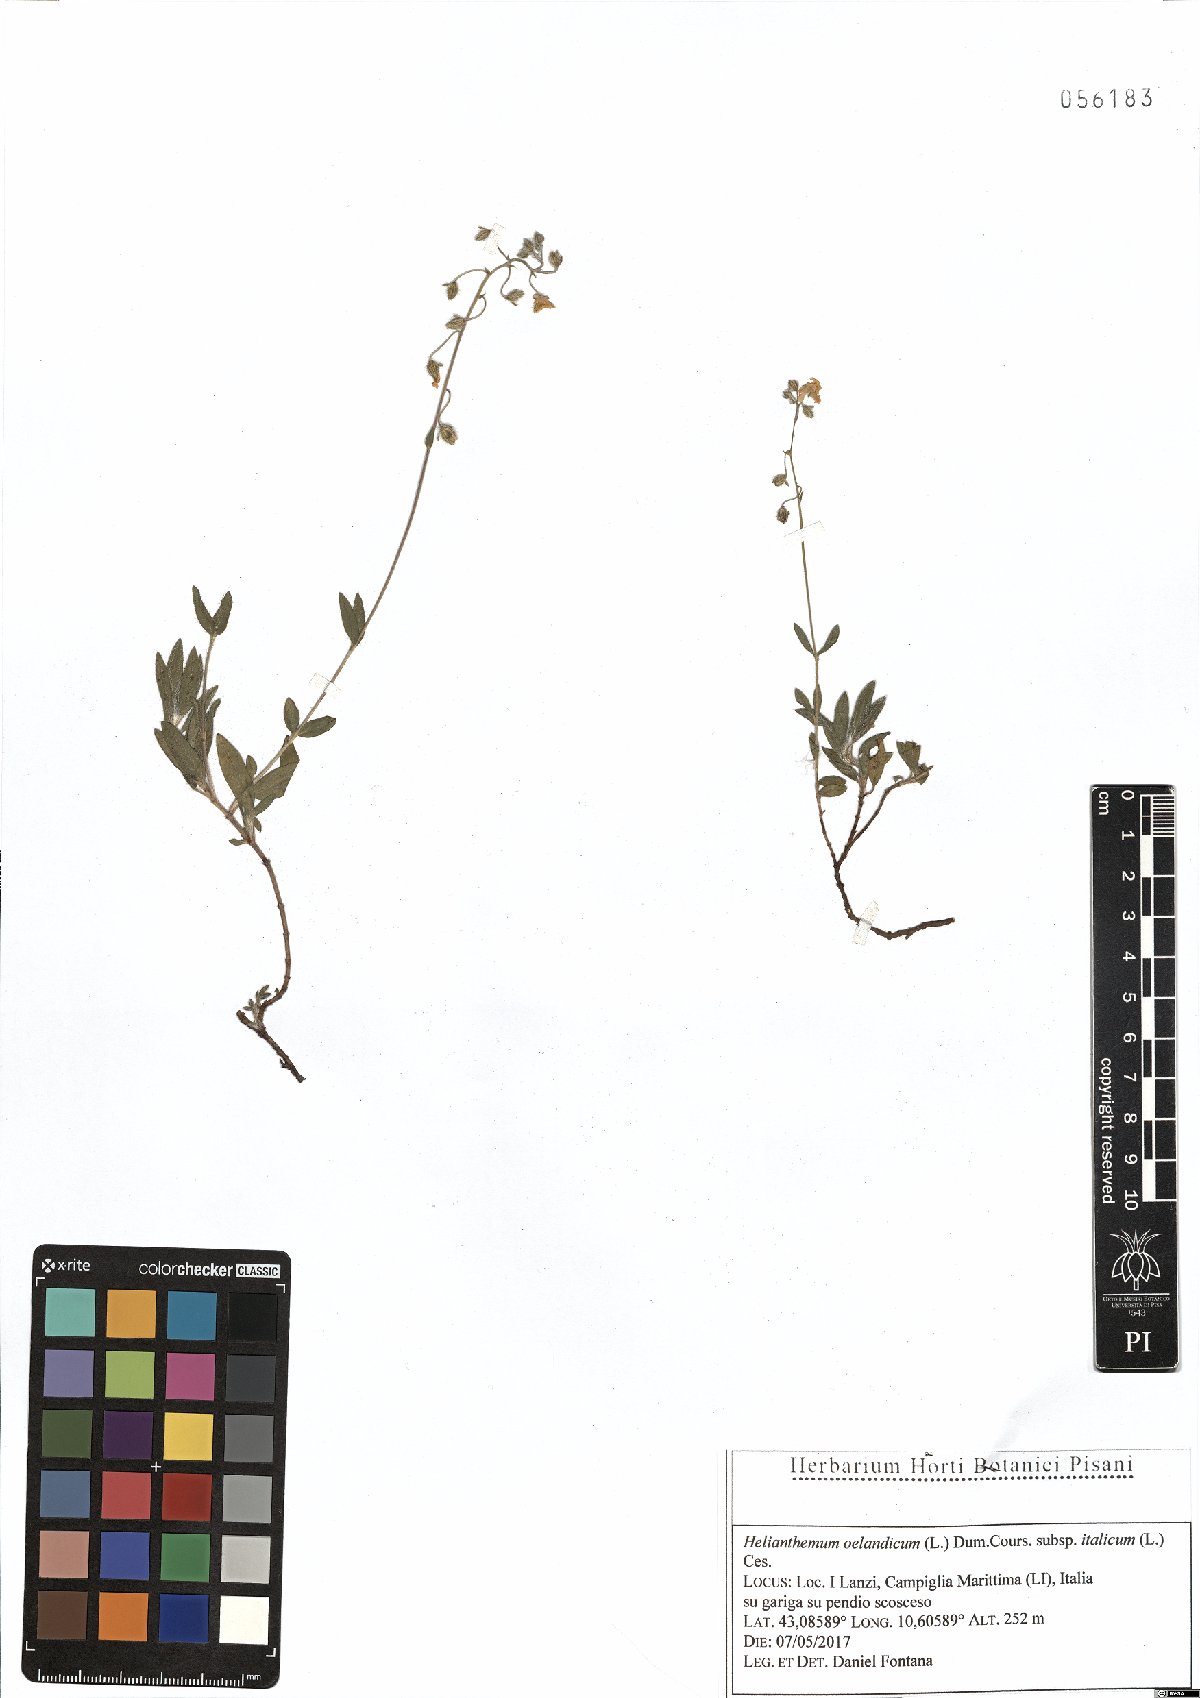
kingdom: Plantae
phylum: Tracheophyta
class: Magnoliopsida
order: Malvales
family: Cistaceae
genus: Helianthemum
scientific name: Helianthemum italicum
